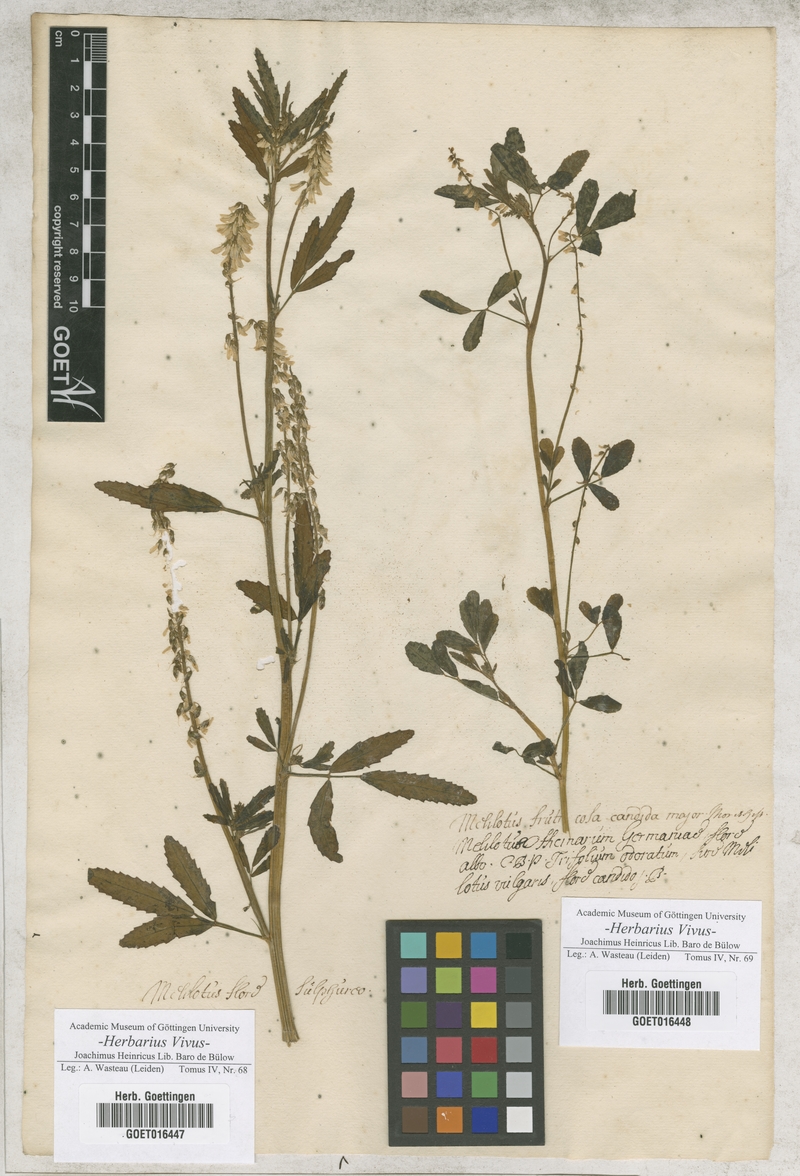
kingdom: Plantae
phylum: Tracheophyta
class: Magnoliopsida
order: Fabales
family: Fabaceae
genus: Melilotus
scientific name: Melilotus
